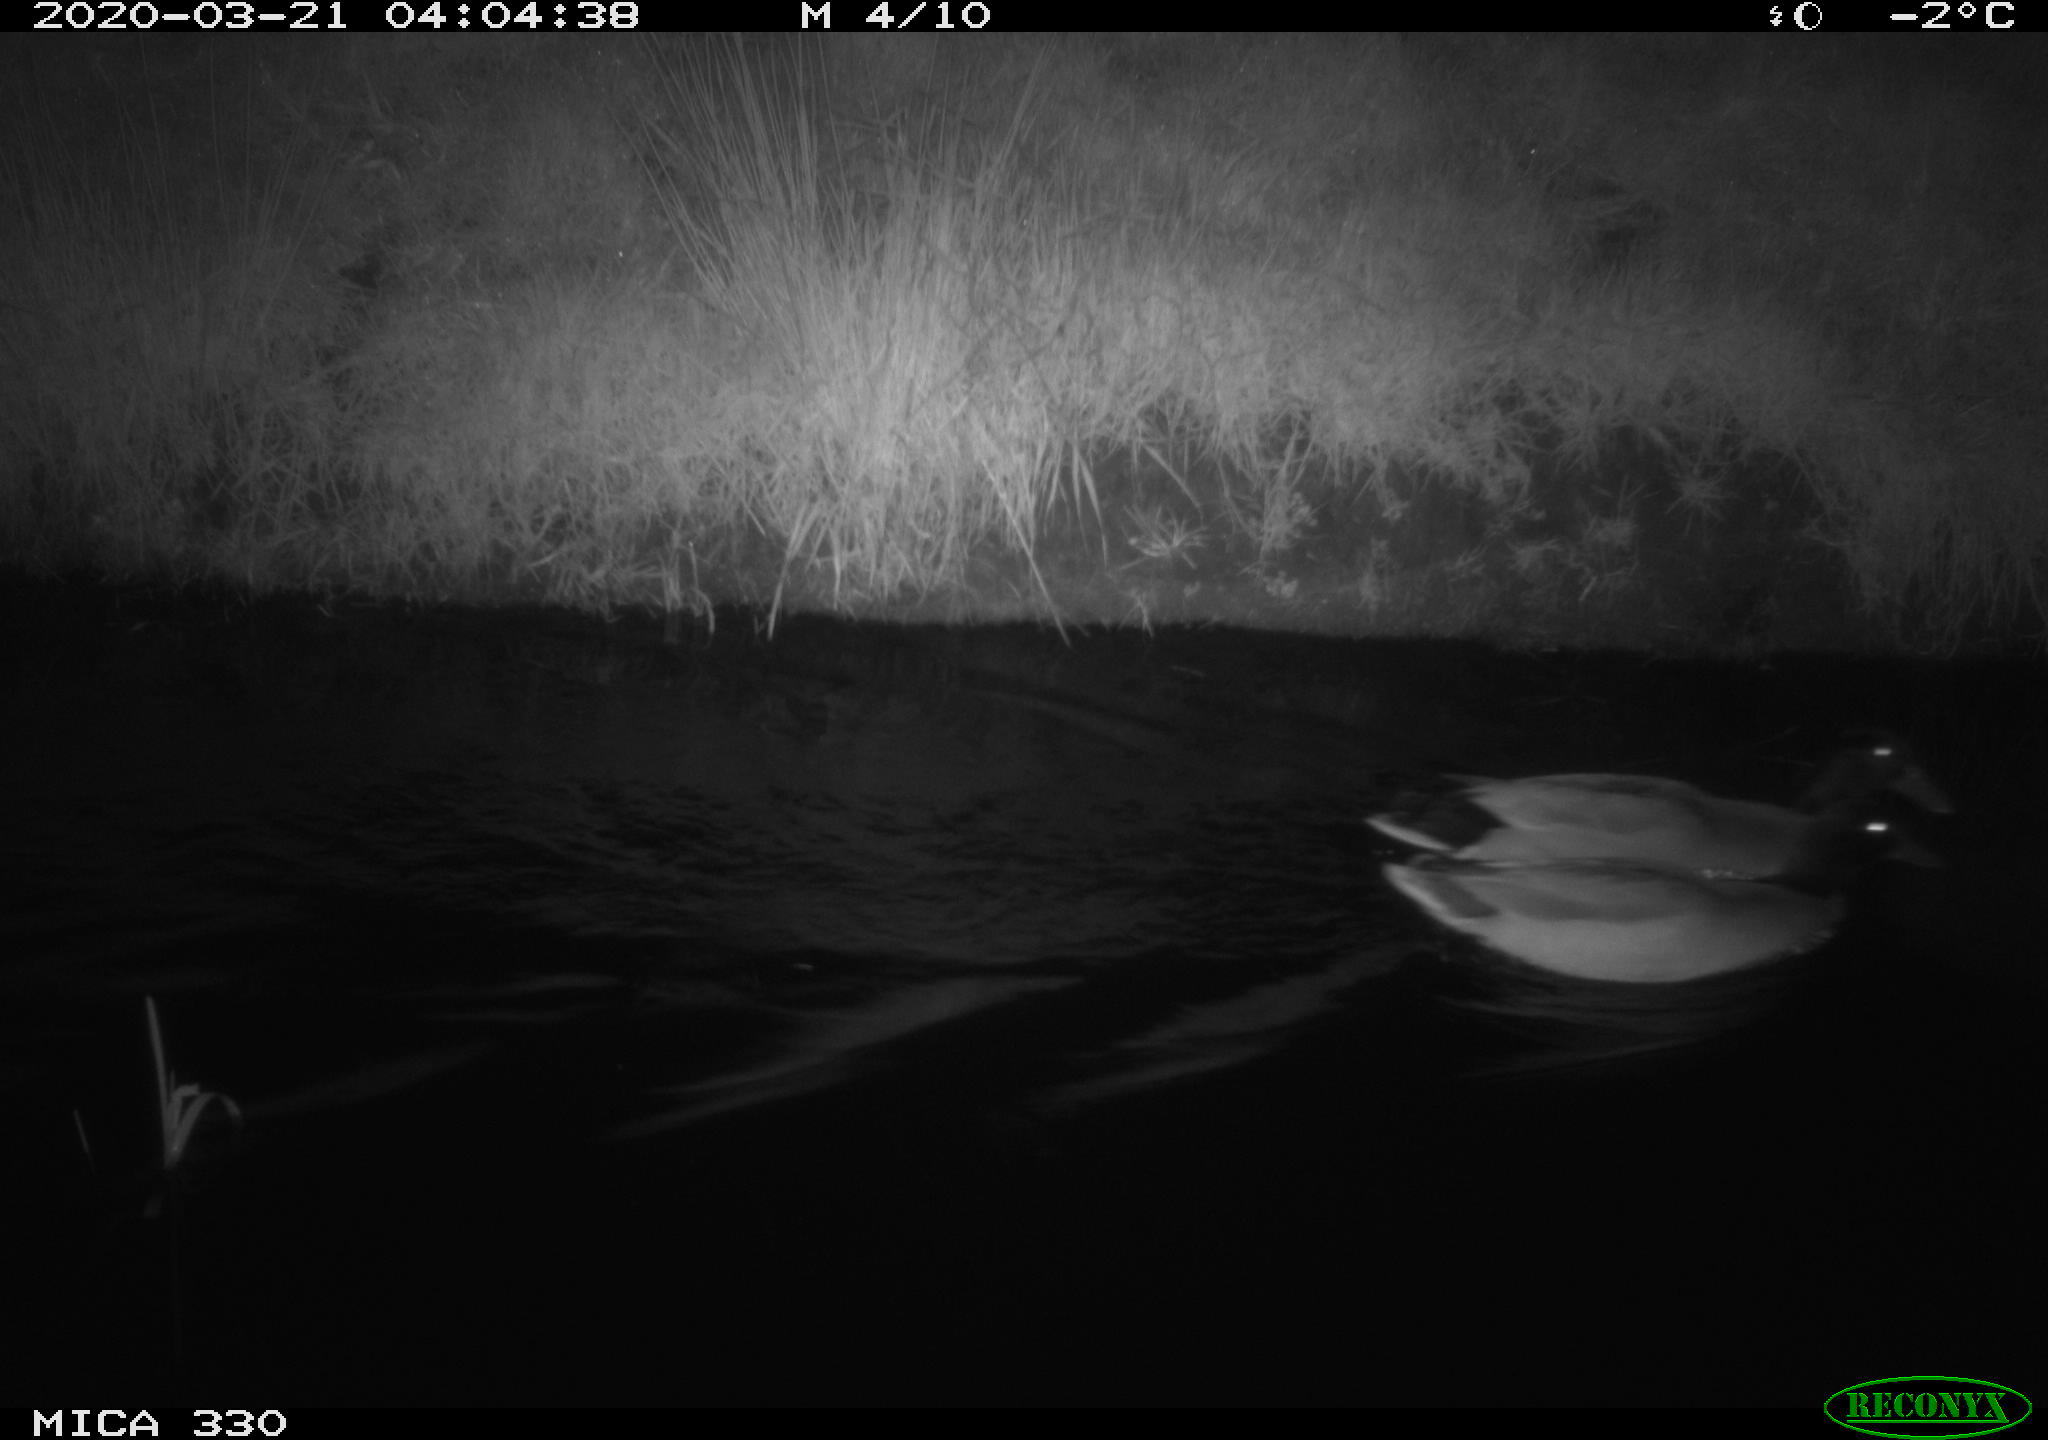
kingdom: Animalia
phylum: Chordata
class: Aves
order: Anseriformes
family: Anatidae
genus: Anas
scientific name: Anas platyrhynchos
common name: Mallard
